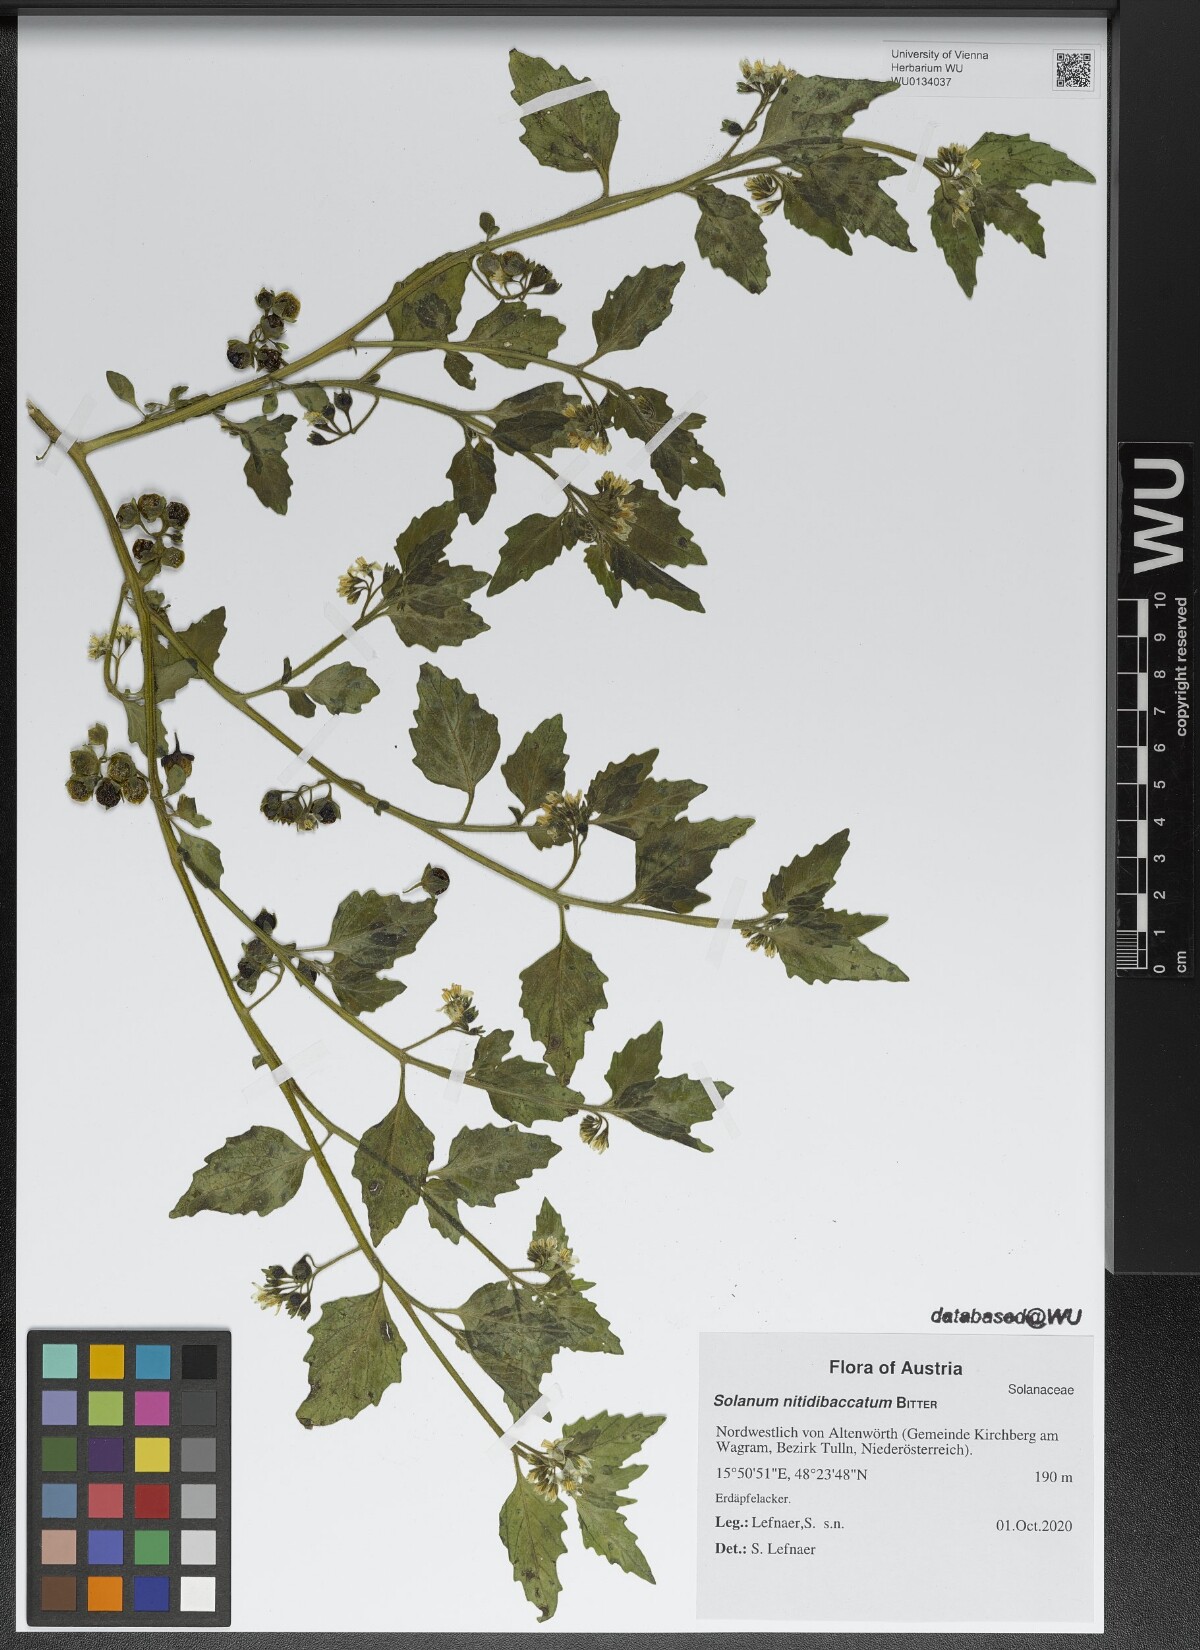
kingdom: Plantae
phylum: Tracheophyta
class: Magnoliopsida
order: Solanales
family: Solanaceae
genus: Solanum
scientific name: Solanum nitidibaccatum
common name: Hairy nightshade
